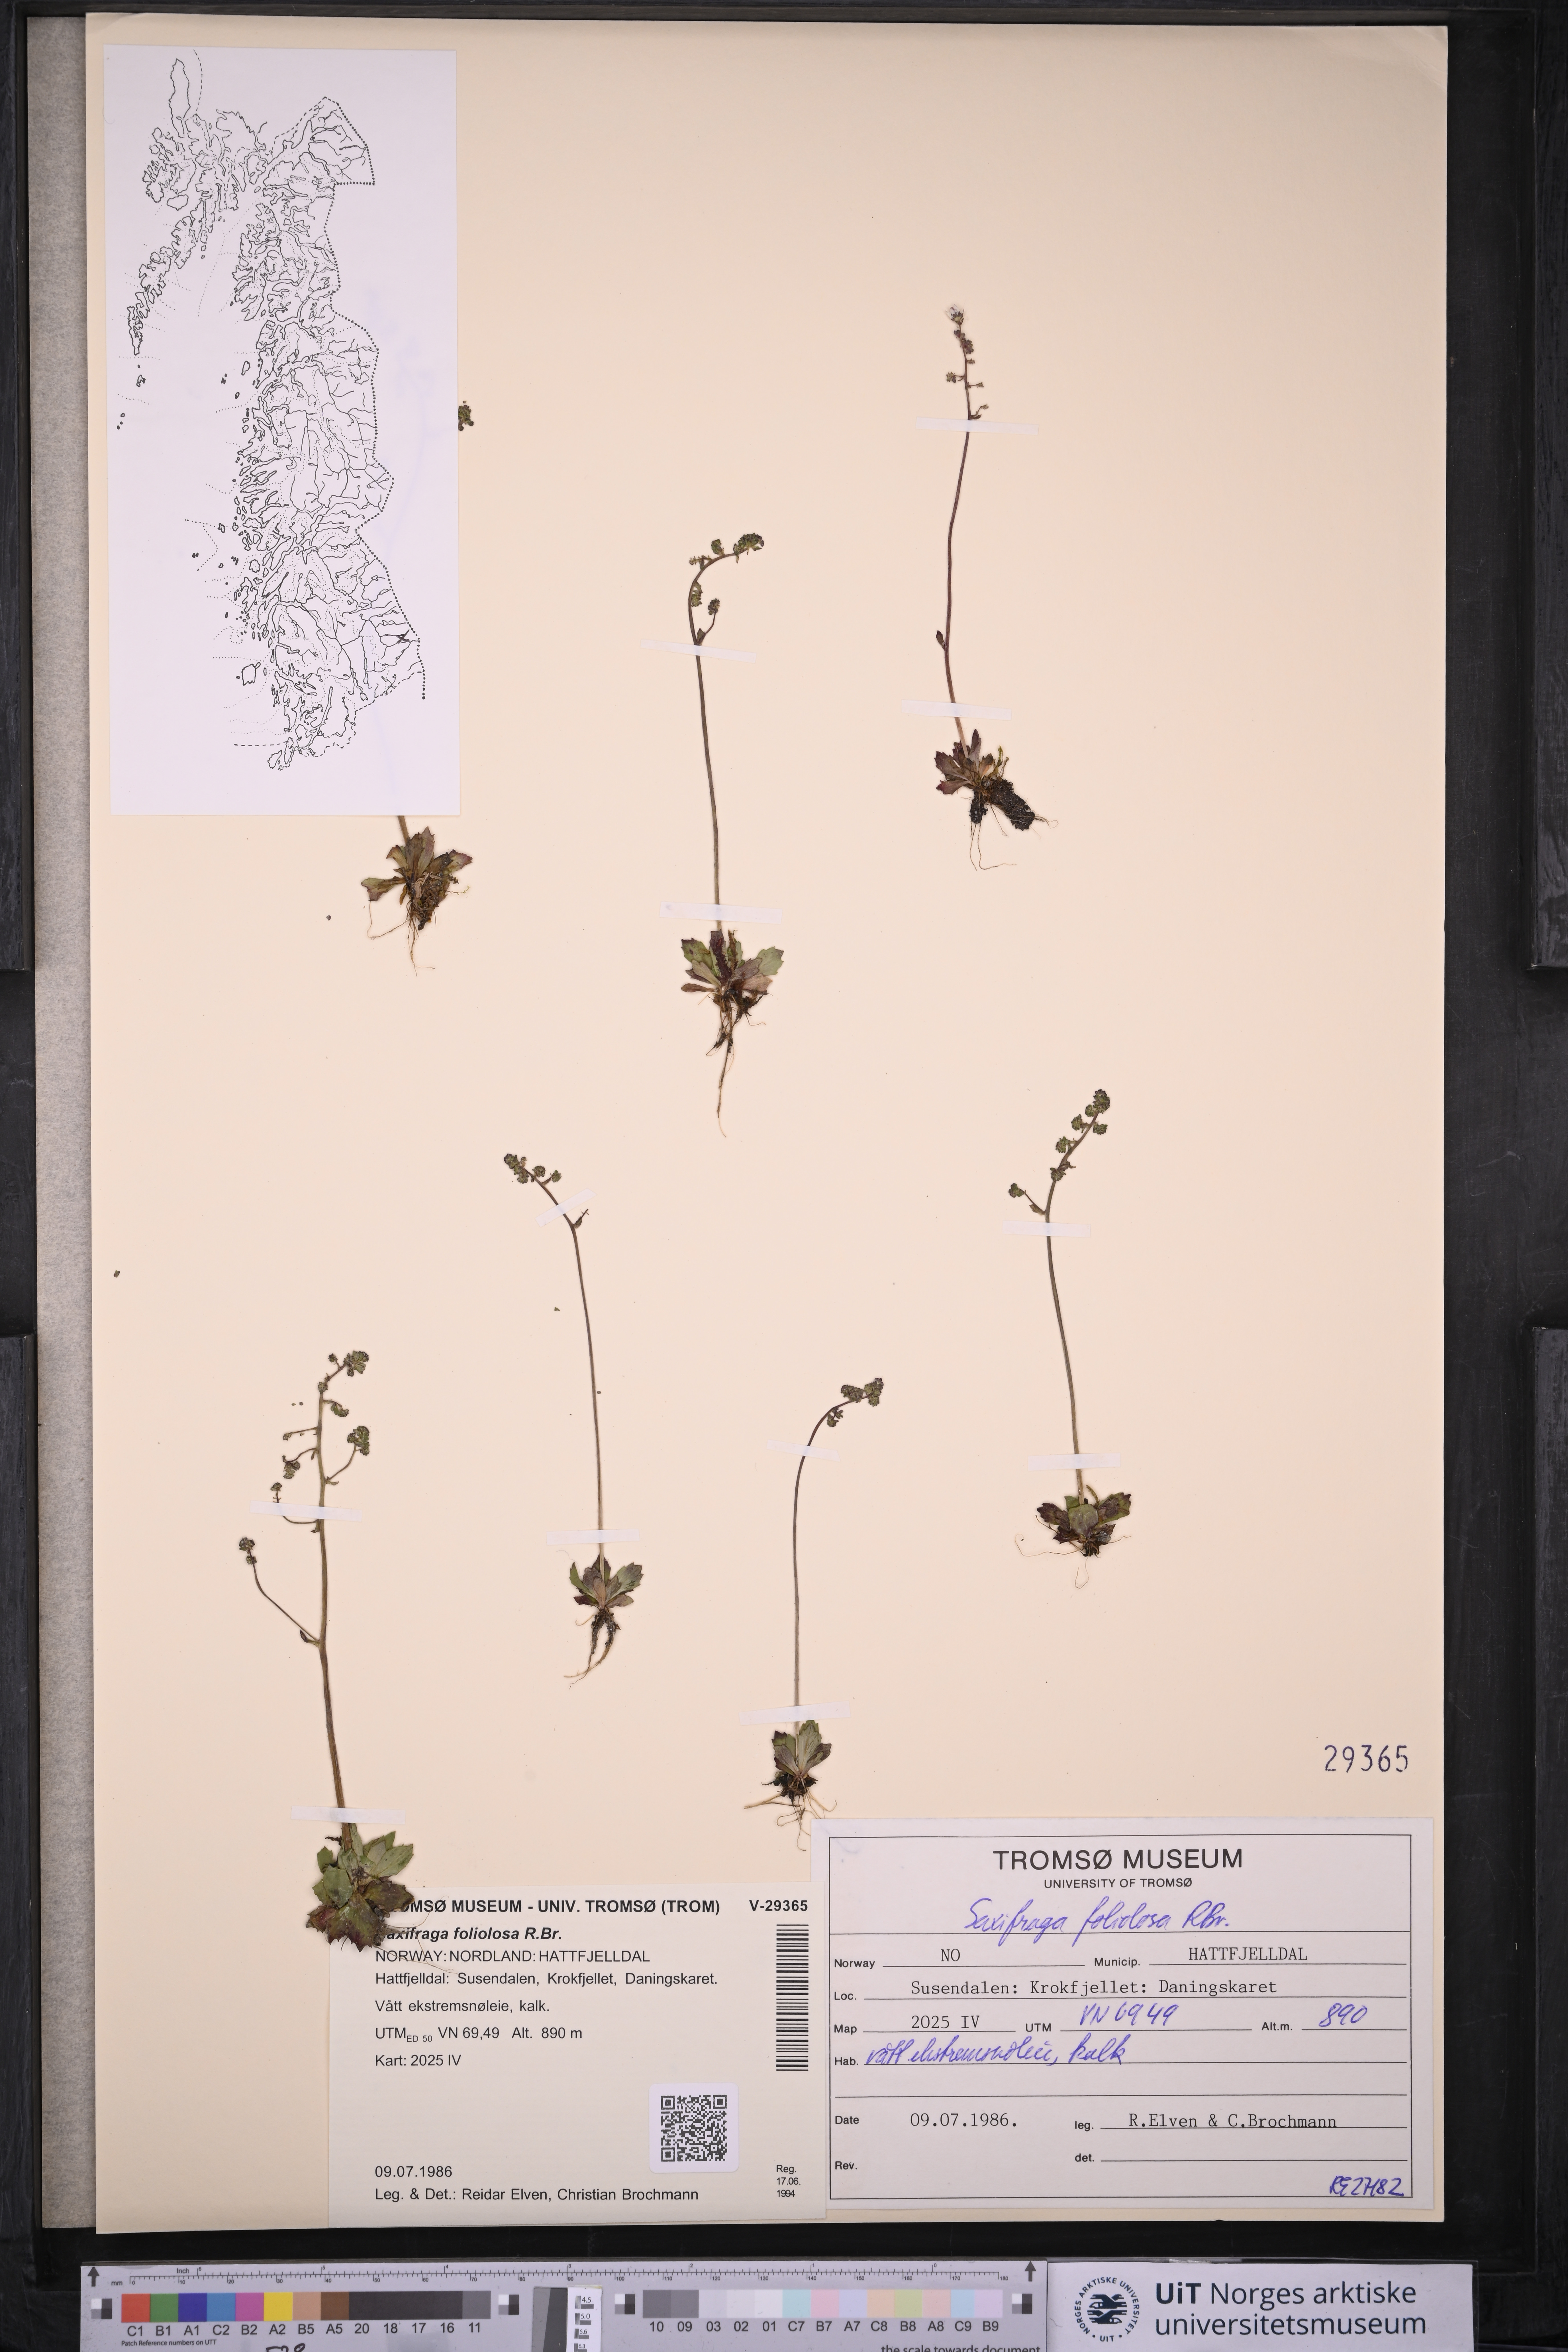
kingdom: Plantae
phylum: Tracheophyta
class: Magnoliopsida
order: Saxifragales
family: Saxifragaceae
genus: Micranthes
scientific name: Micranthes foliolosa
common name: Leafystem saxifrage
